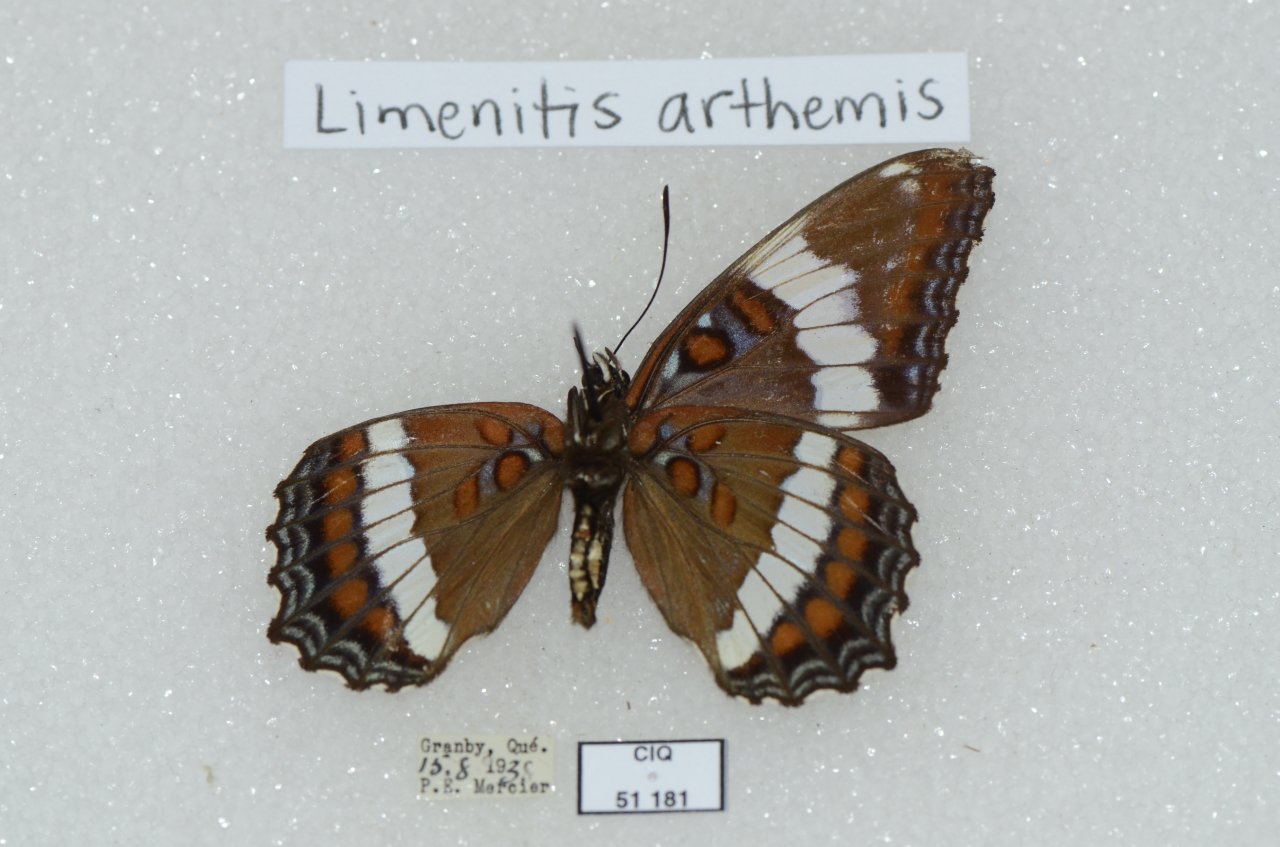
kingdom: Animalia
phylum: Arthropoda
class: Insecta
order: Lepidoptera
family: Nymphalidae
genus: Limenitis
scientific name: Limenitis arthemis
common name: Red-spotted Admiral
